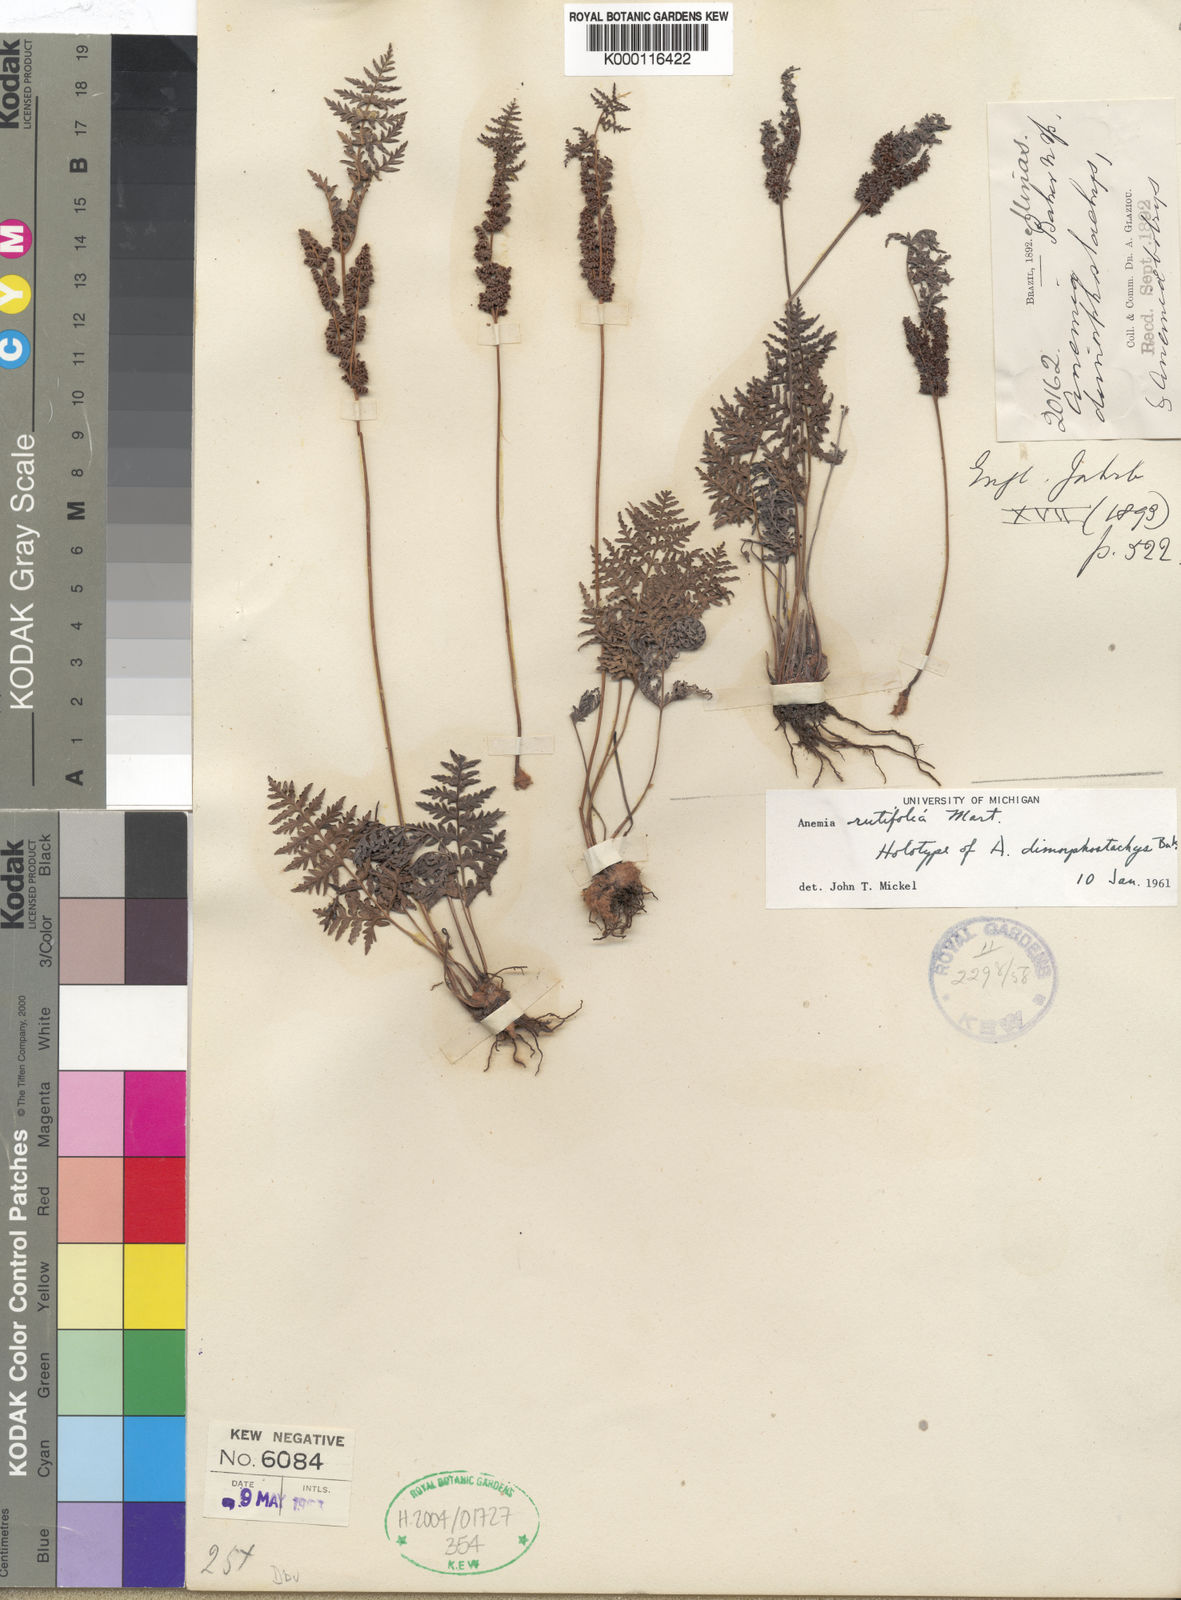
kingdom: Plantae
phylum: Tracheophyta
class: Polypodiopsida
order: Schizaeales
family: Anemiaceae
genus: Anemia
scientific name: Anemia rutifolia
